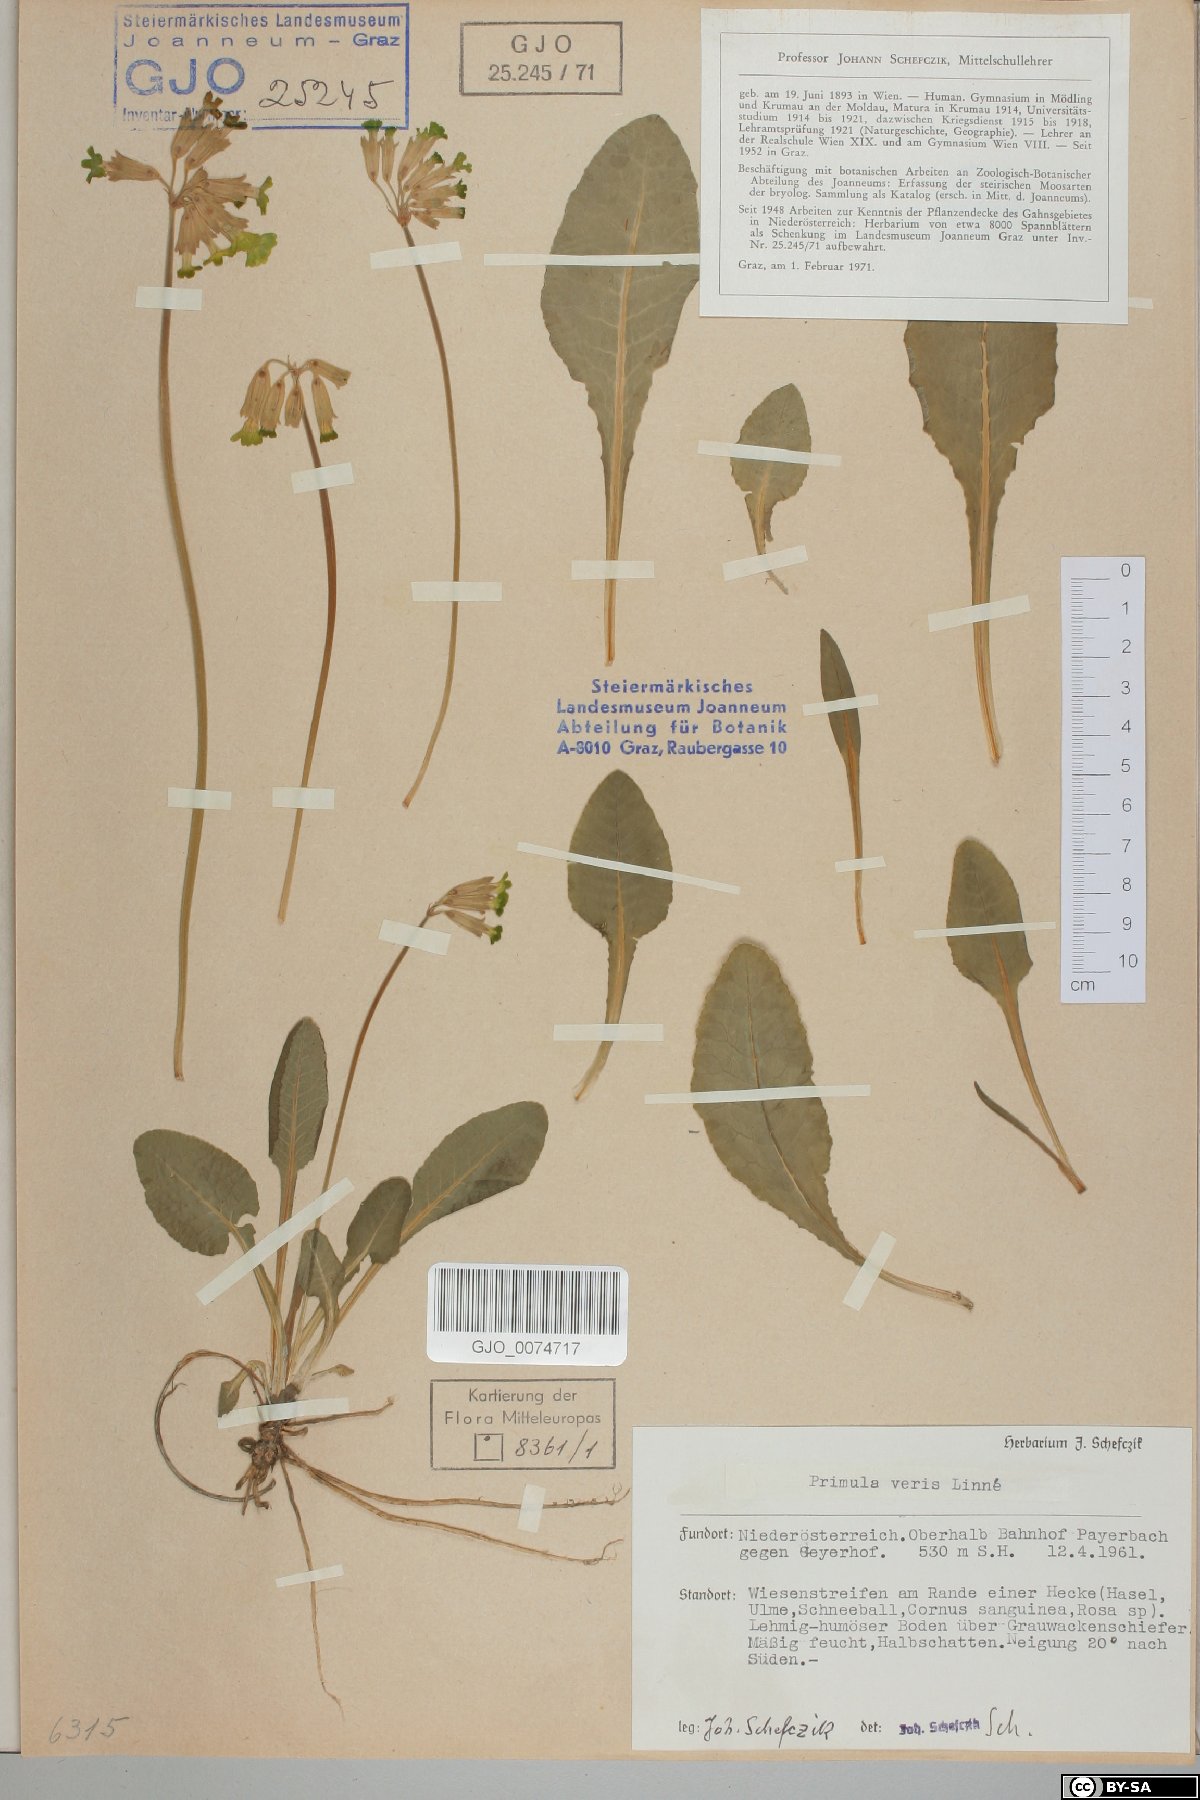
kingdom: Plantae
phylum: Tracheophyta
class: Magnoliopsida
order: Ericales
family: Primulaceae
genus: Primula
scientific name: Primula veris
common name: Cowslip
